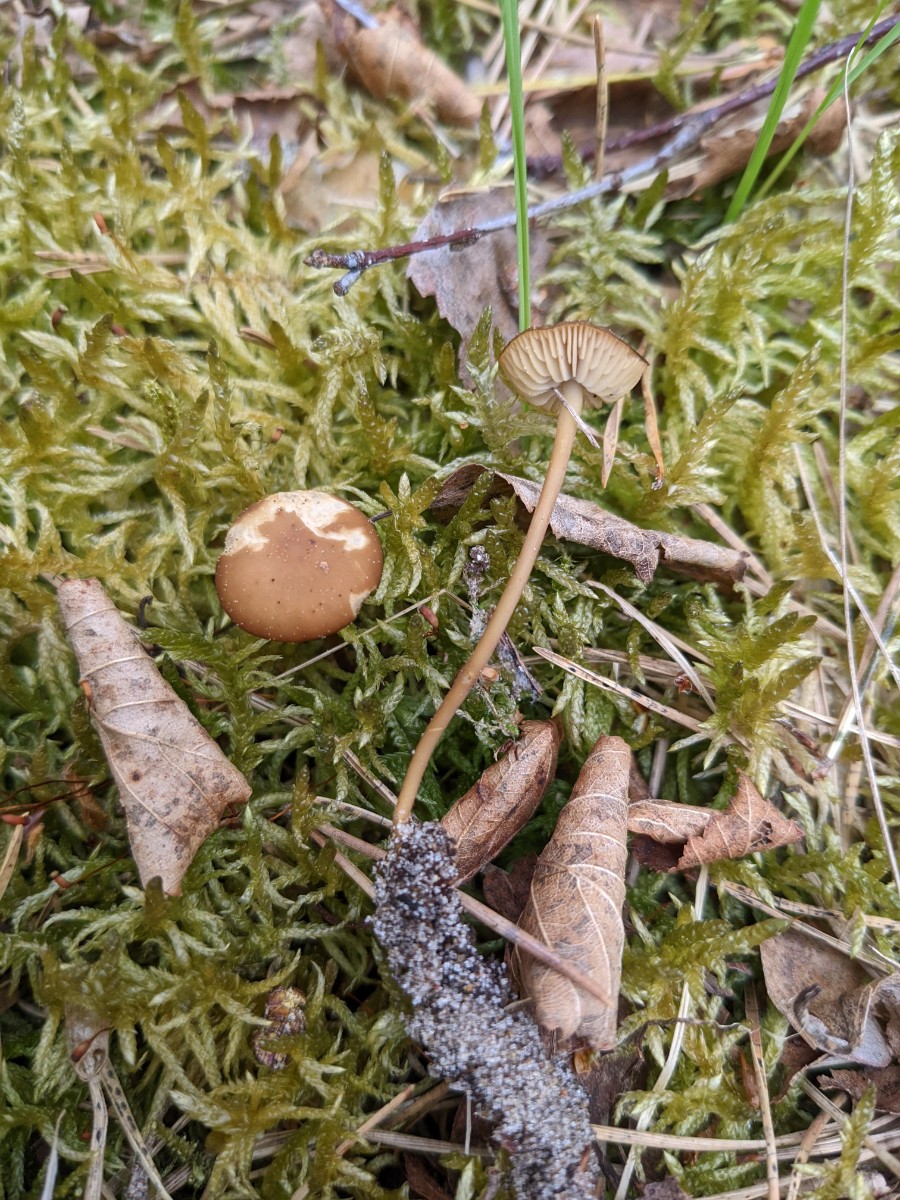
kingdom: Fungi
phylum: Basidiomycota
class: Agaricomycetes
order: Agaricales
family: Physalacriaceae
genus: Strobilurus
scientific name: Strobilurus stephanocystis
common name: fyrre-koglehat
